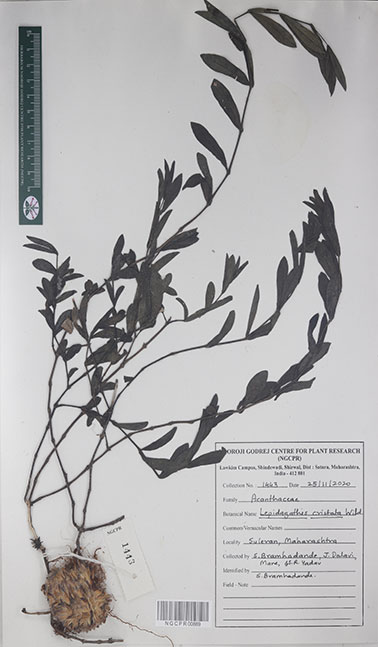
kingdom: Plantae
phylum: Tracheophyta
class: Magnoliopsida
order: Lamiales
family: Acanthaceae
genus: Lepidagathis
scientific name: Lepidagathis cristata
